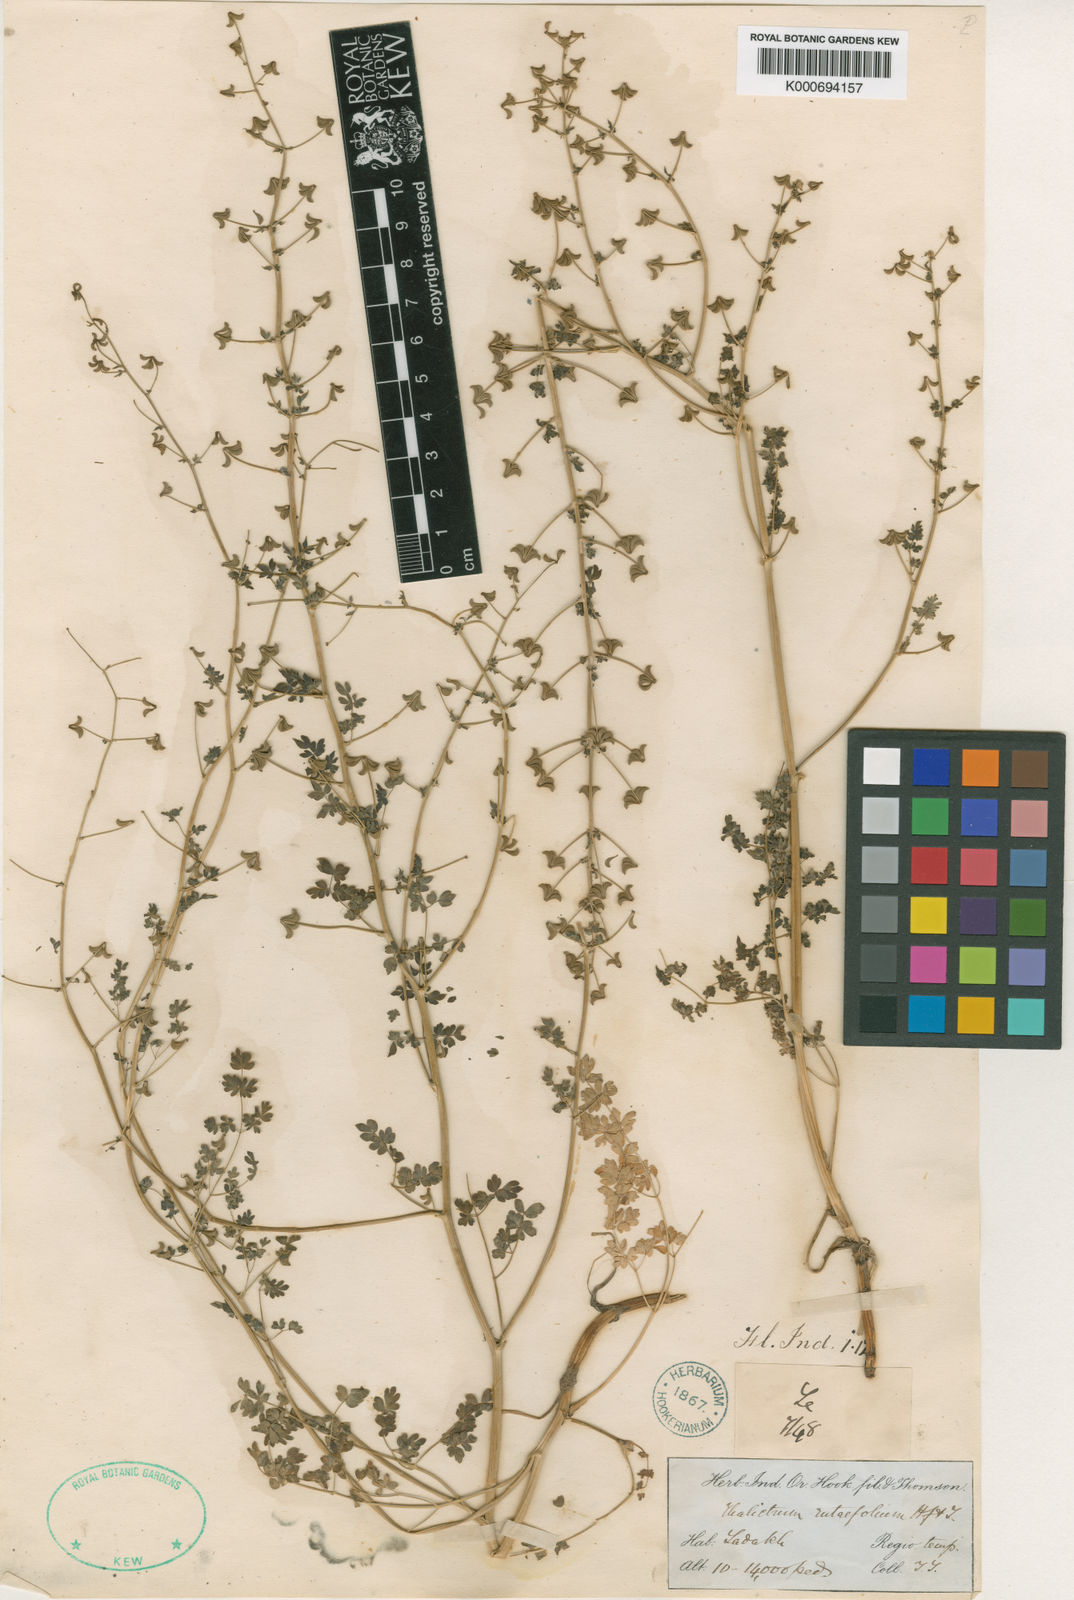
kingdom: Plantae
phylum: Tracheophyta
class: Magnoliopsida
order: Ranunculales
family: Ranunculaceae
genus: Thalictrum
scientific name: Thalictrum
